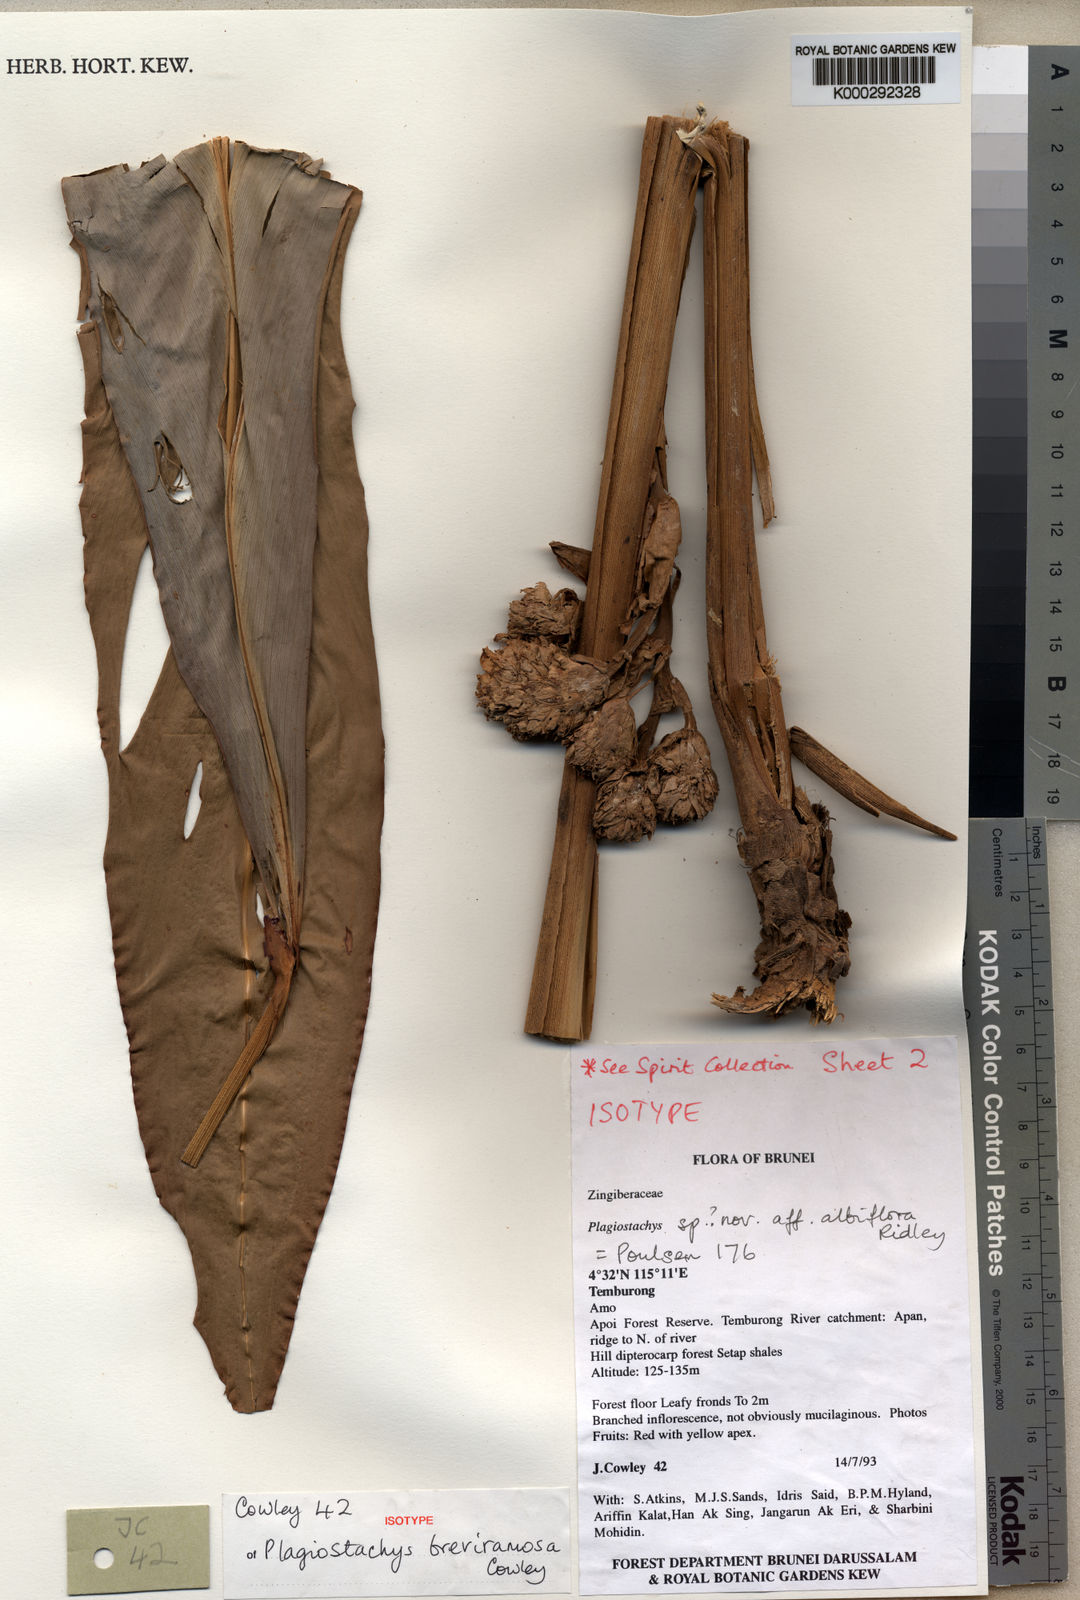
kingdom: Plantae
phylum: Tracheophyta
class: Liliopsida
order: Zingiberales
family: Zingiberaceae
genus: Plagiostachys
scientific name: Plagiostachys breviramosa
